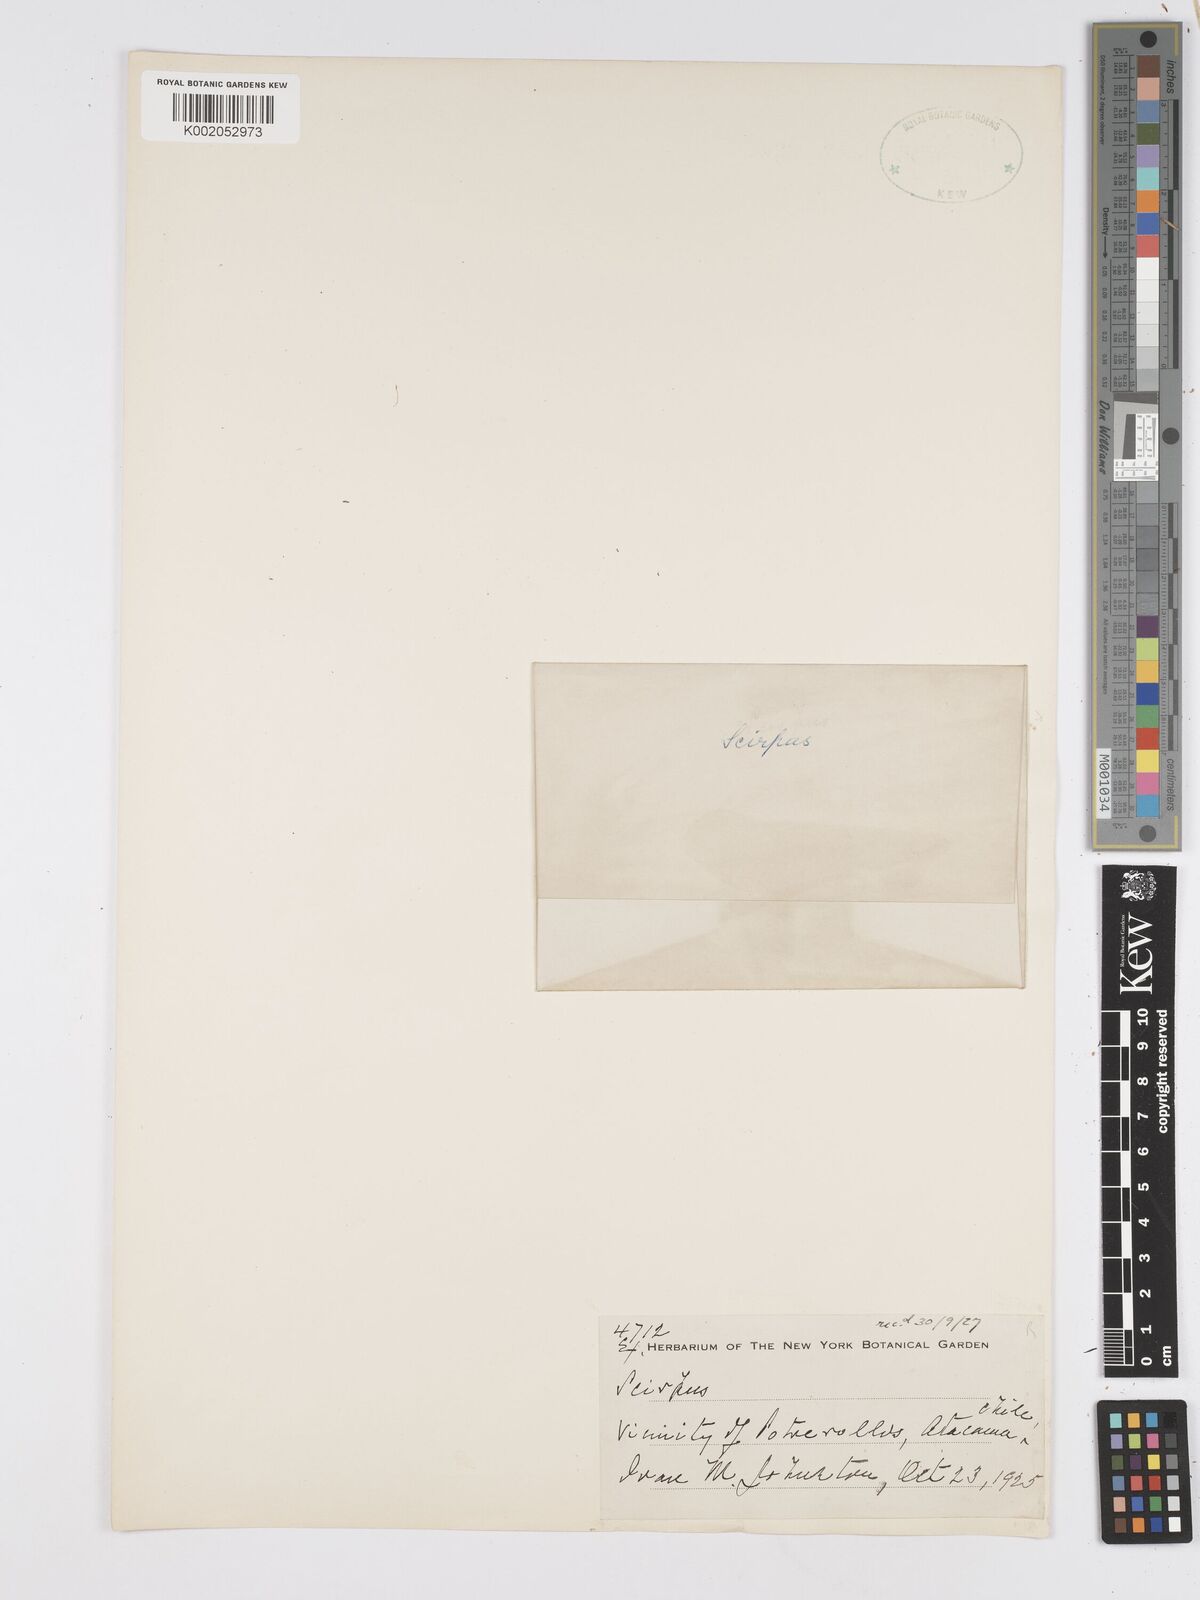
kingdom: Plantae
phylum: Tracheophyta
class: Liliopsida
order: Poales
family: Cyperaceae
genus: Scirpus
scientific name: Scirpus
